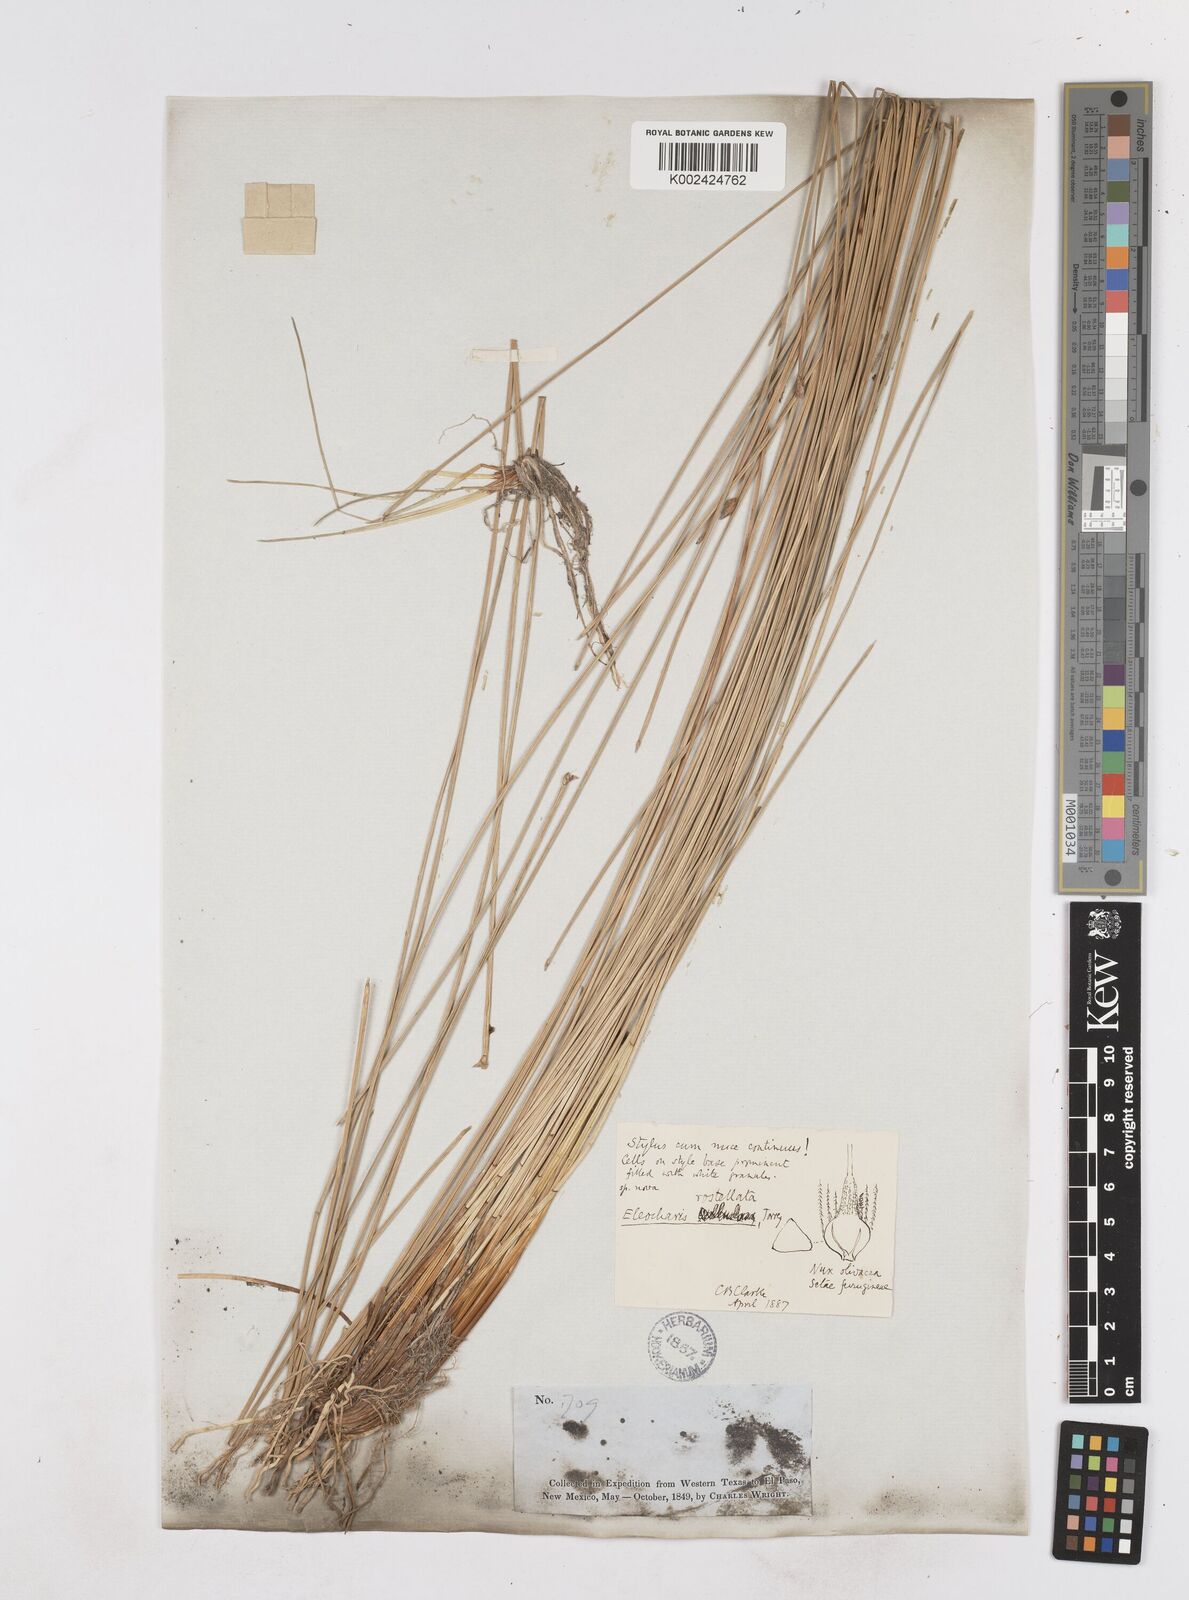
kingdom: Plantae
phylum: Tracheophyta
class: Liliopsida
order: Poales
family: Cyperaceae
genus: Eleocharis
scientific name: Eleocharis rostellata
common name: Walking sedge
